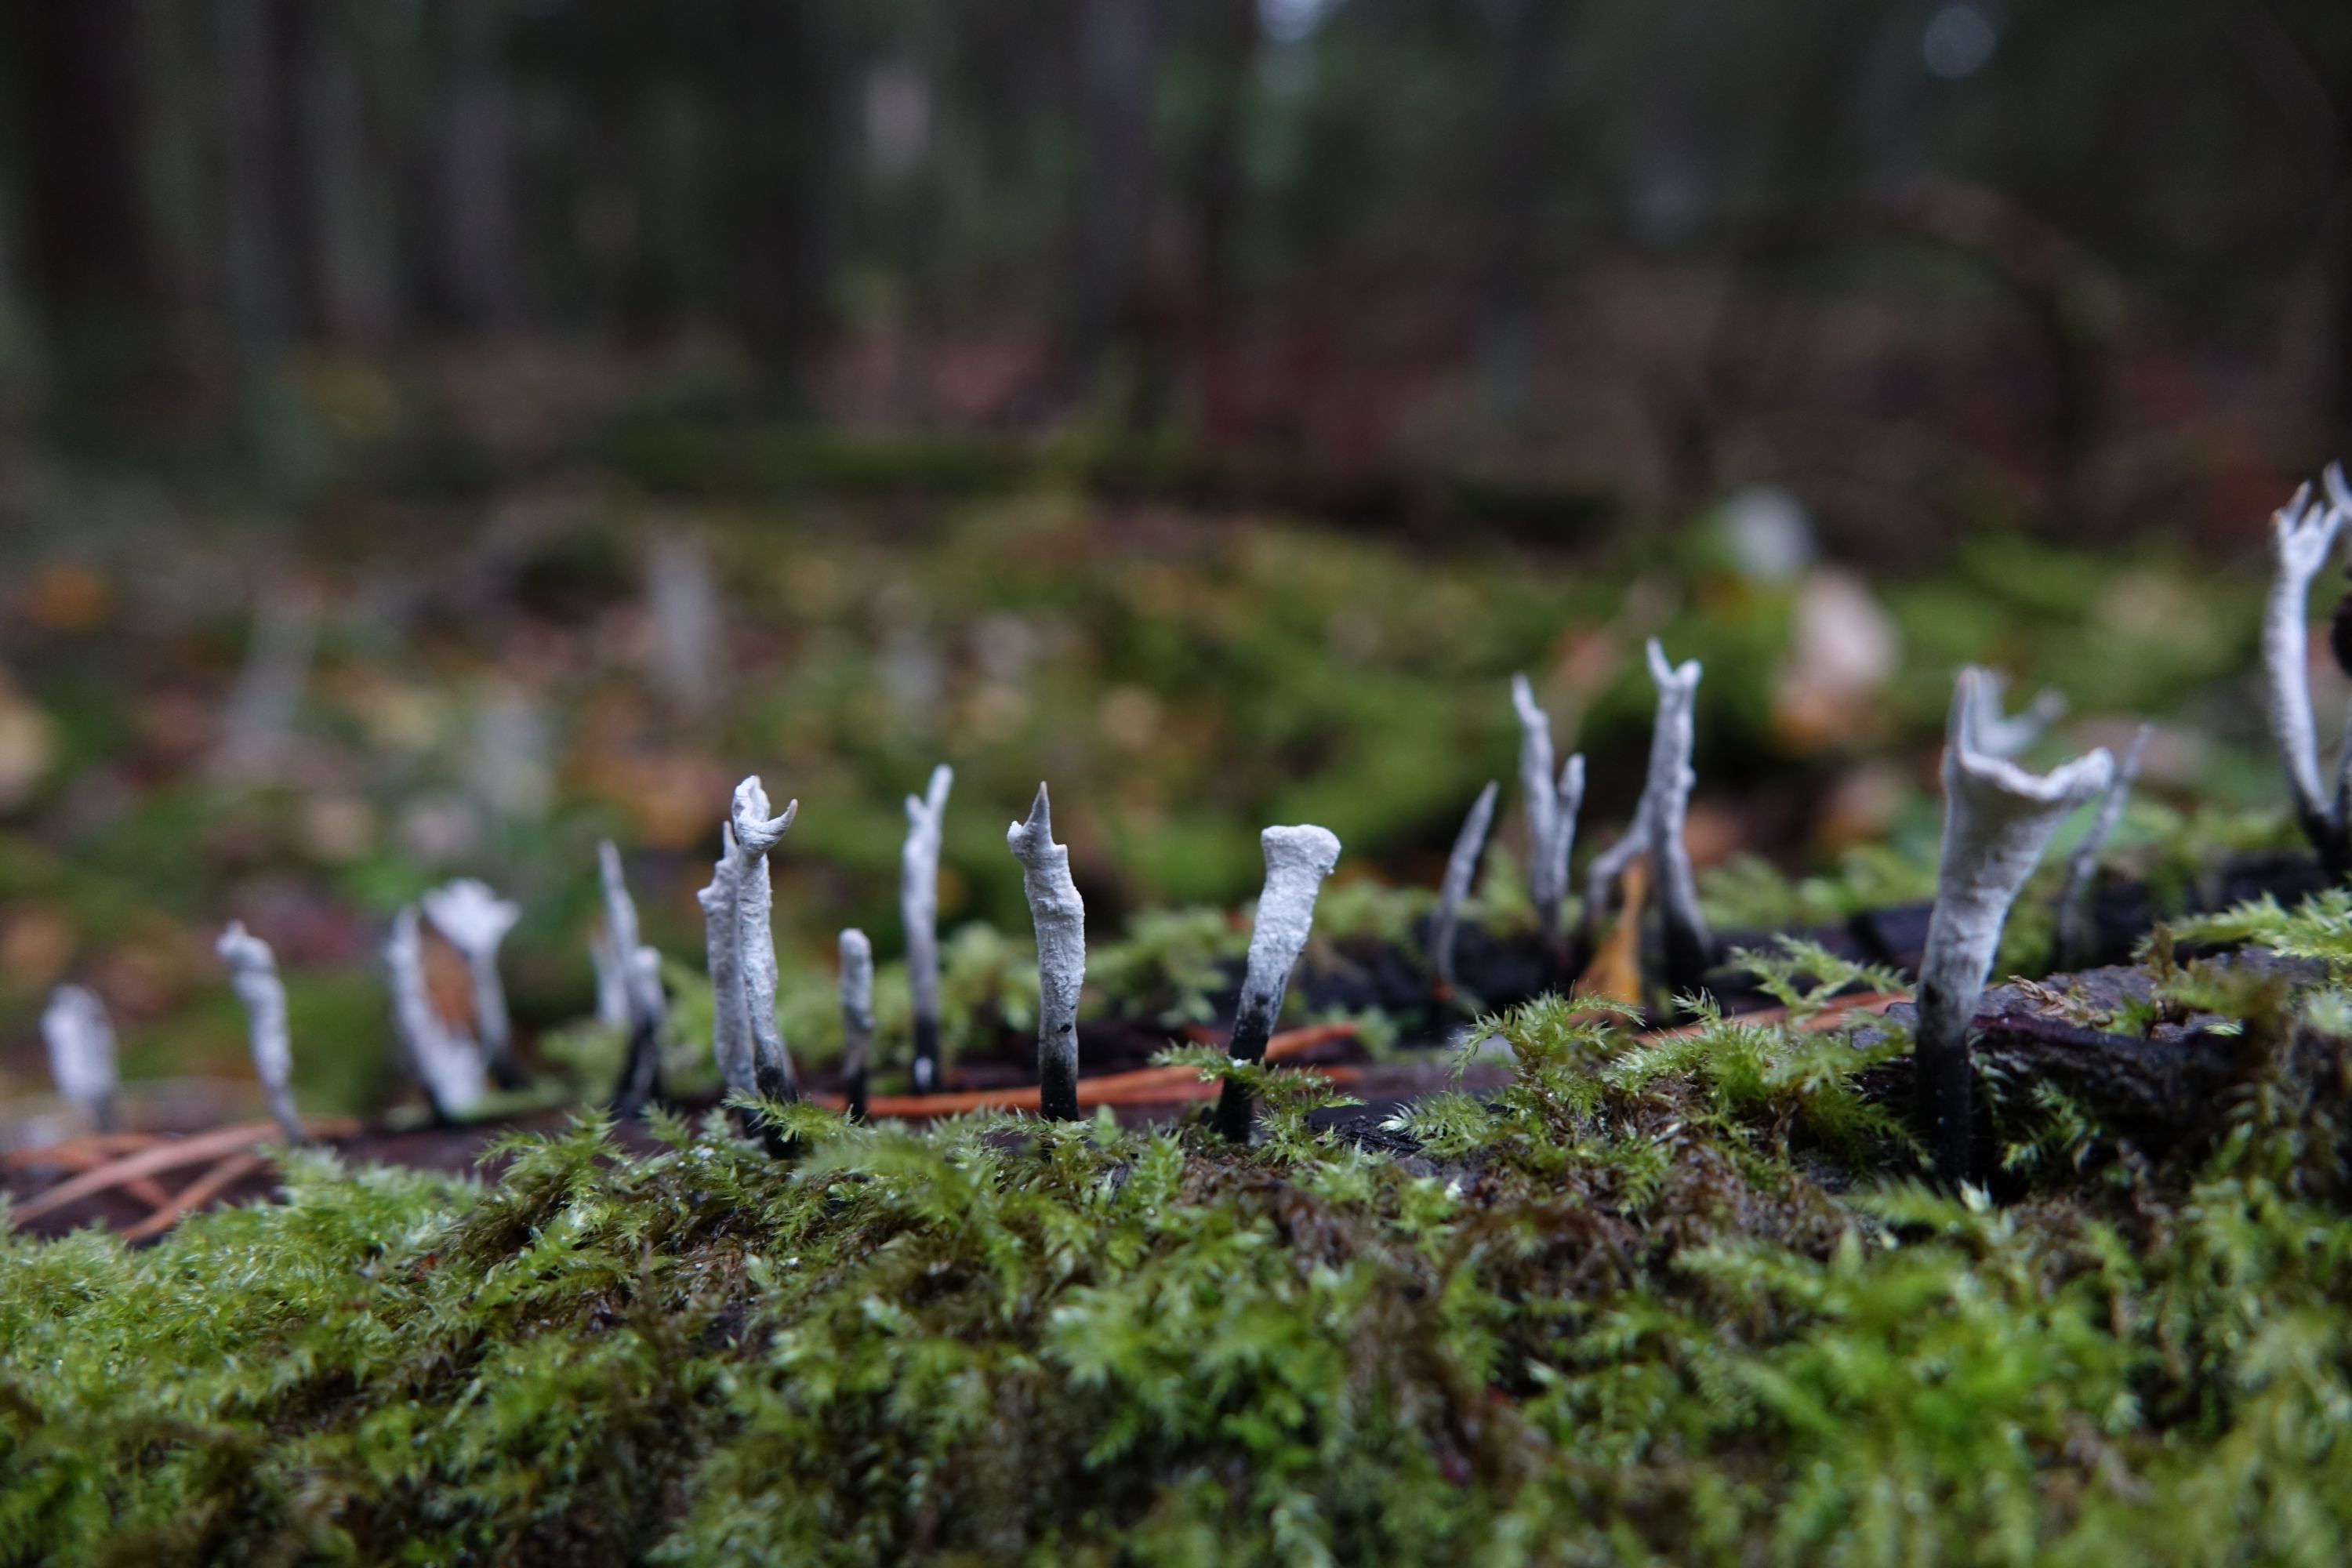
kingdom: Fungi
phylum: Ascomycota
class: Sordariomycetes
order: Xylariales
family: Xylariaceae
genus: Xylaria
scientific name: Xylaria hypoxylon
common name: Candle-snuff fungus
